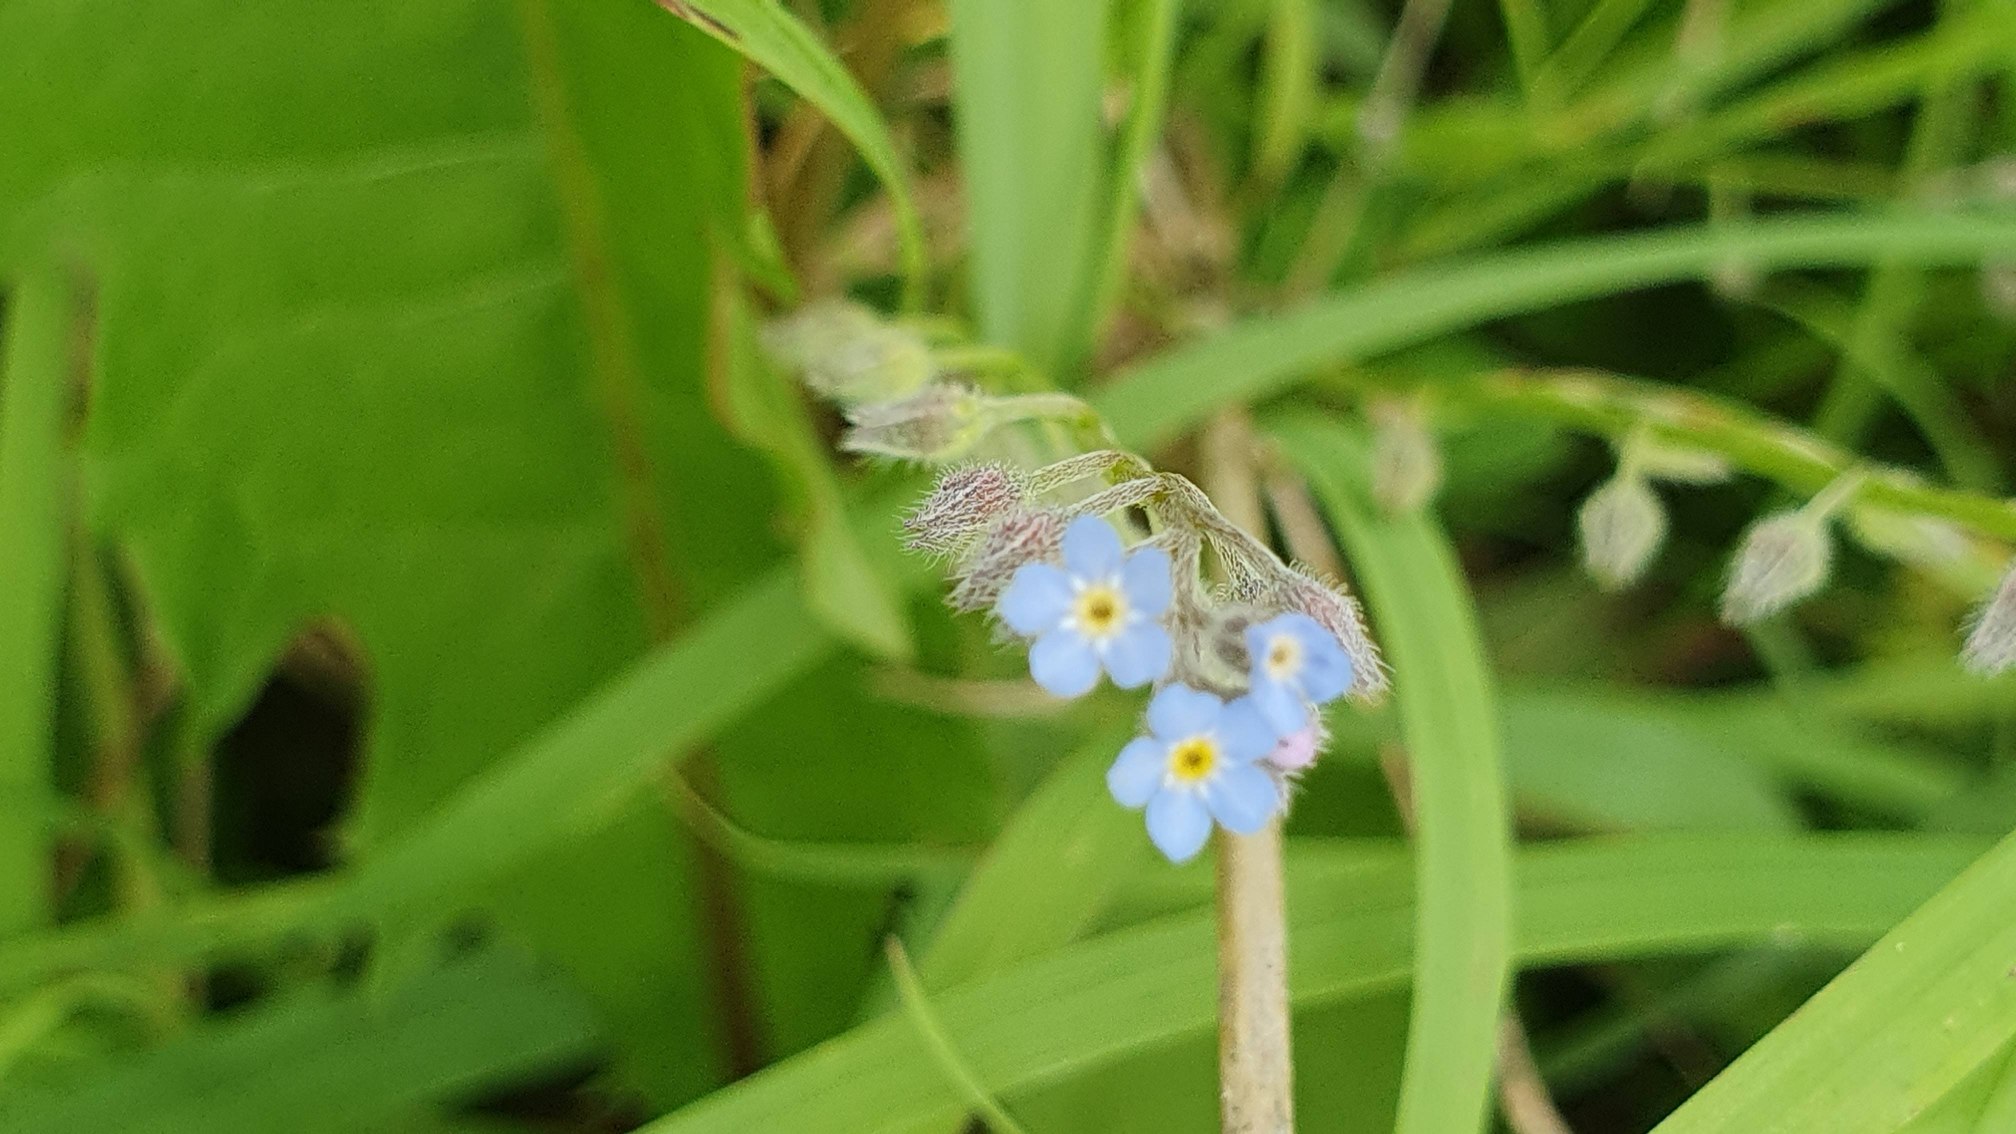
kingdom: Plantae
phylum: Tracheophyta
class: Magnoliopsida
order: Boraginales
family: Boraginaceae
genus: Myosotis
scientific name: Myosotis arvensis
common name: Mark-forglemmigej
